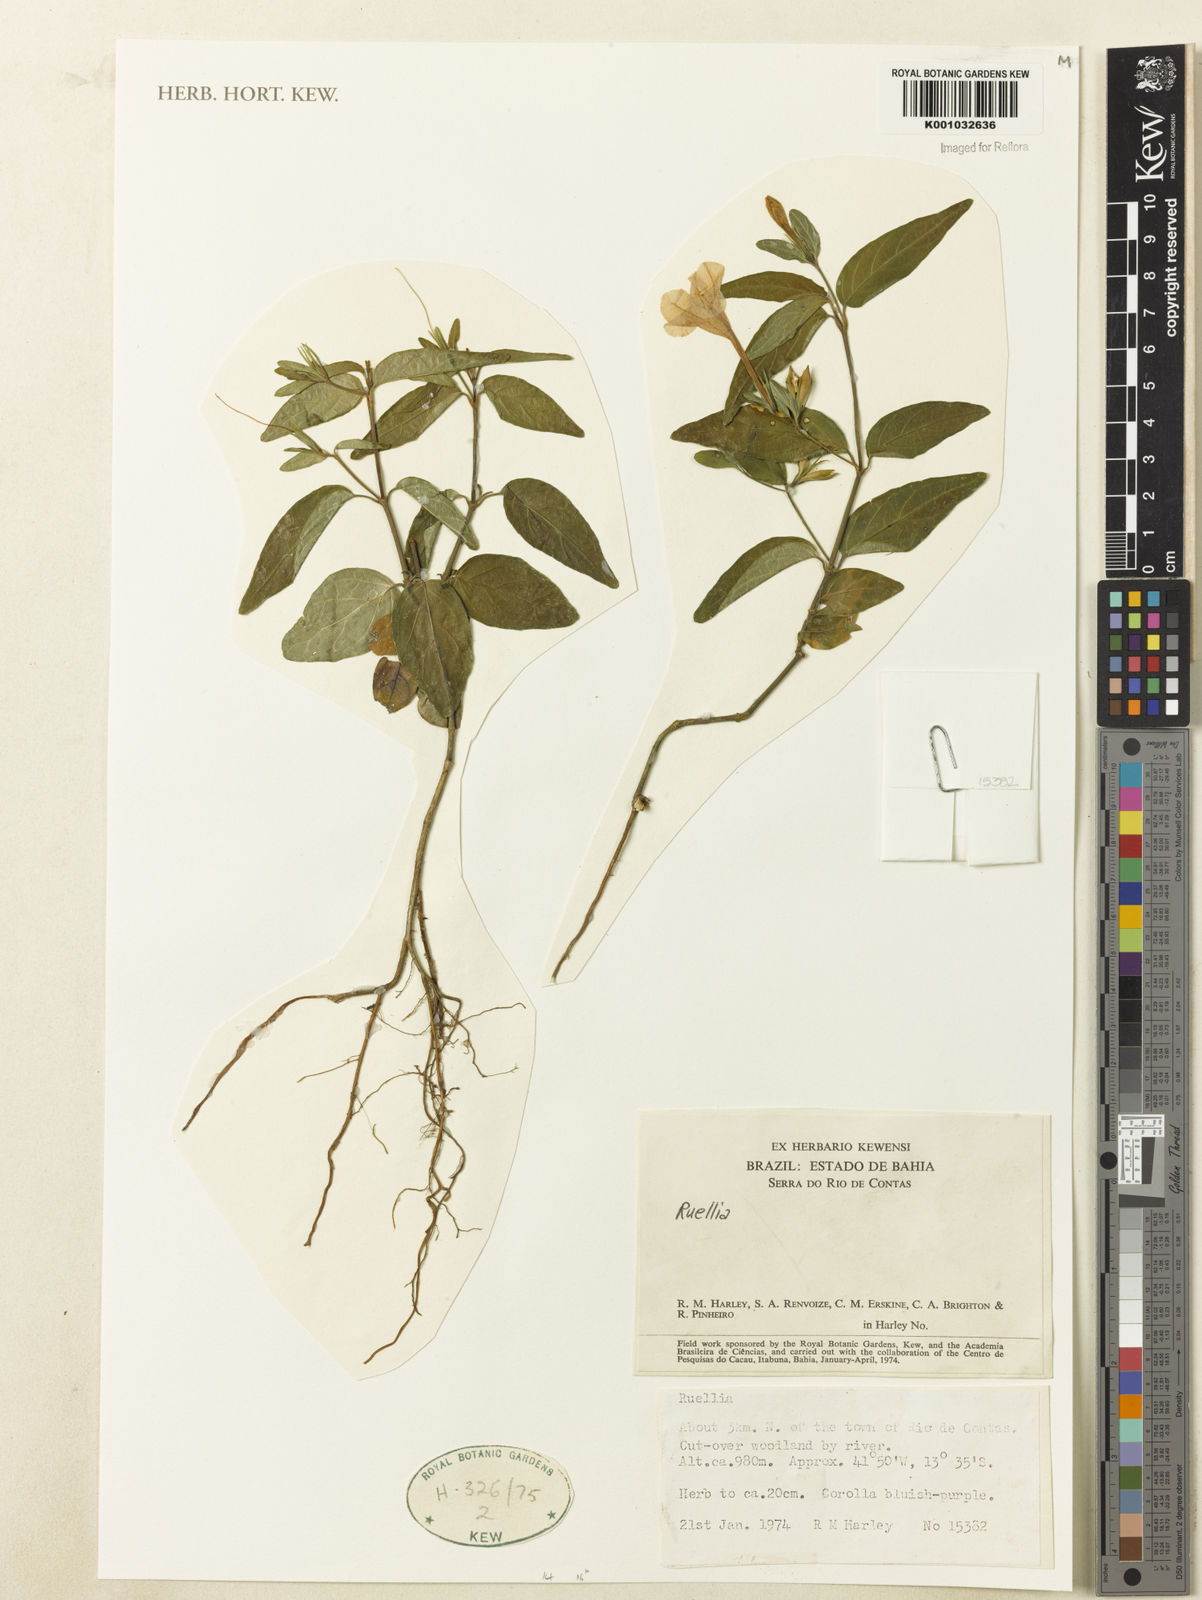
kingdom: Plantae
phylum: Tracheophyta
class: Magnoliopsida
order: Lamiales
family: Acanthaceae
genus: Ruellia
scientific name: Ruellia
